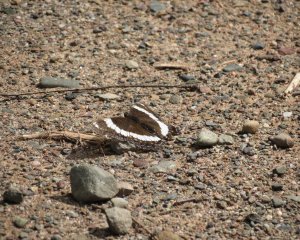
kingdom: Animalia
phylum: Arthropoda
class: Insecta
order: Lepidoptera
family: Nymphalidae
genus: Limenitis
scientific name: Limenitis arthemis
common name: Red-spotted Admiral
